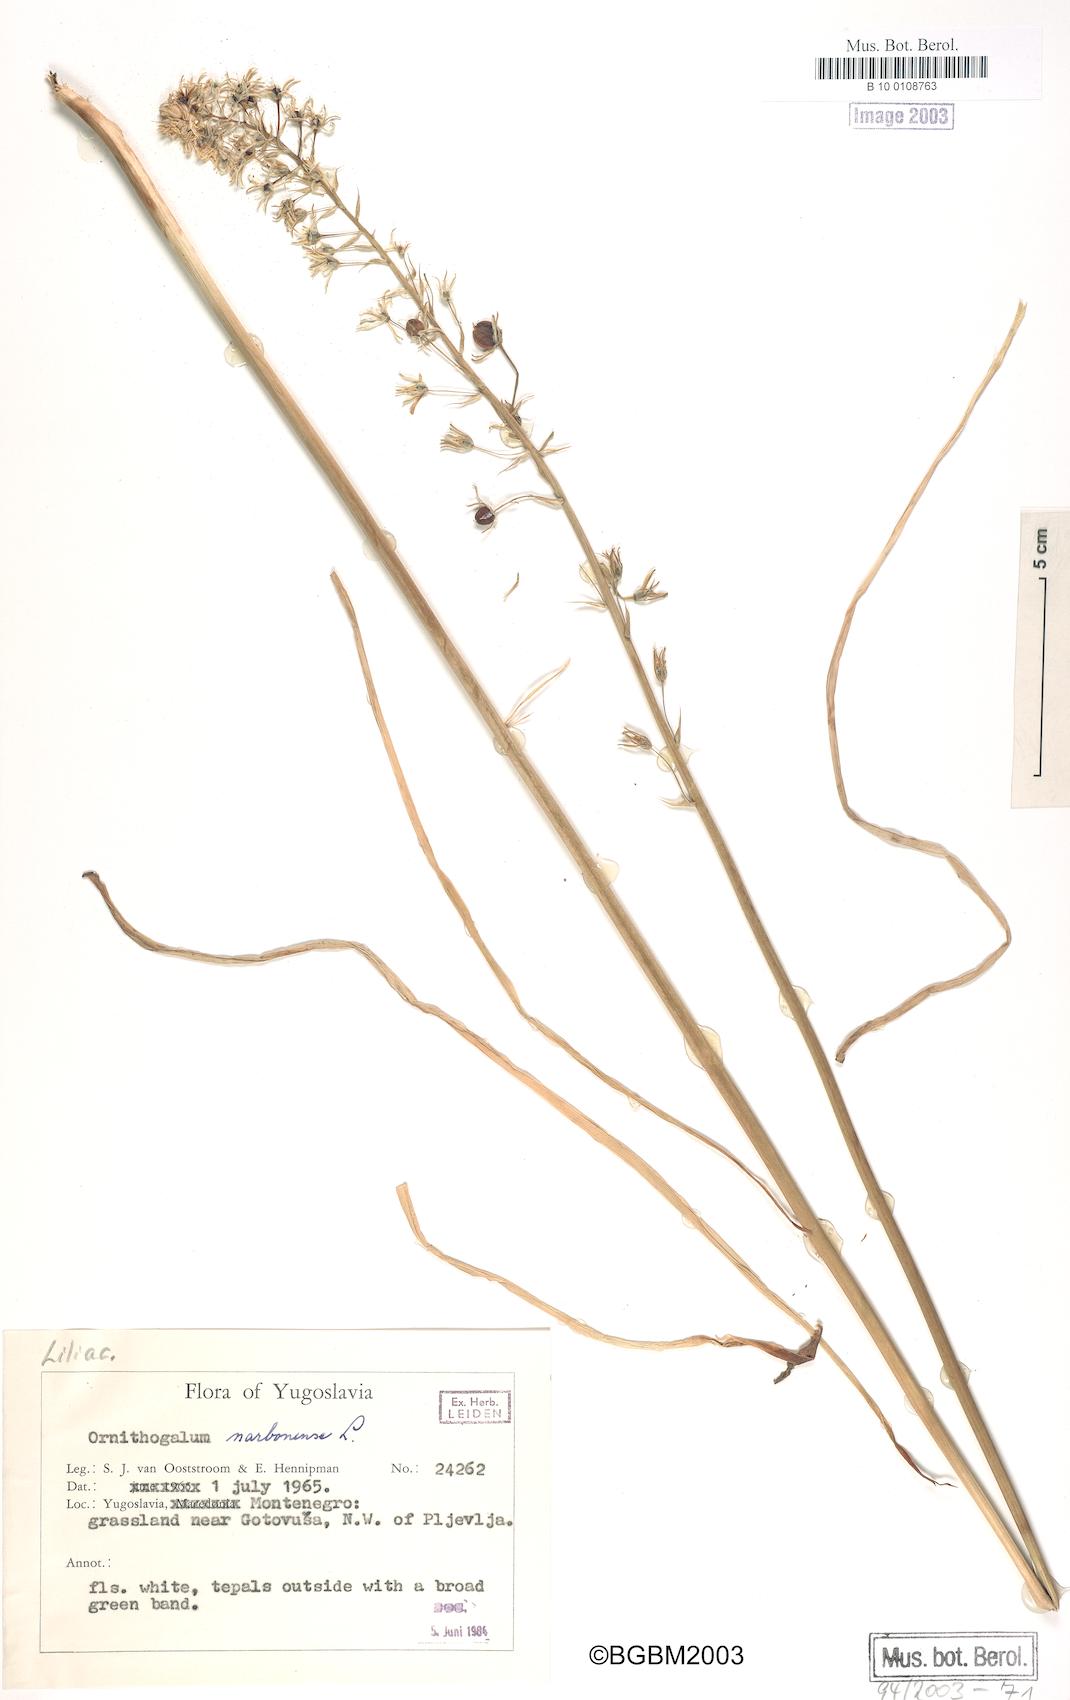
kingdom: Plantae
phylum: Tracheophyta
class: Liliopsida
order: Asparagales
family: Asparagaceae
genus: Ornithogalum
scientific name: Ornithogalum narbonense
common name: Bath-asparagus
